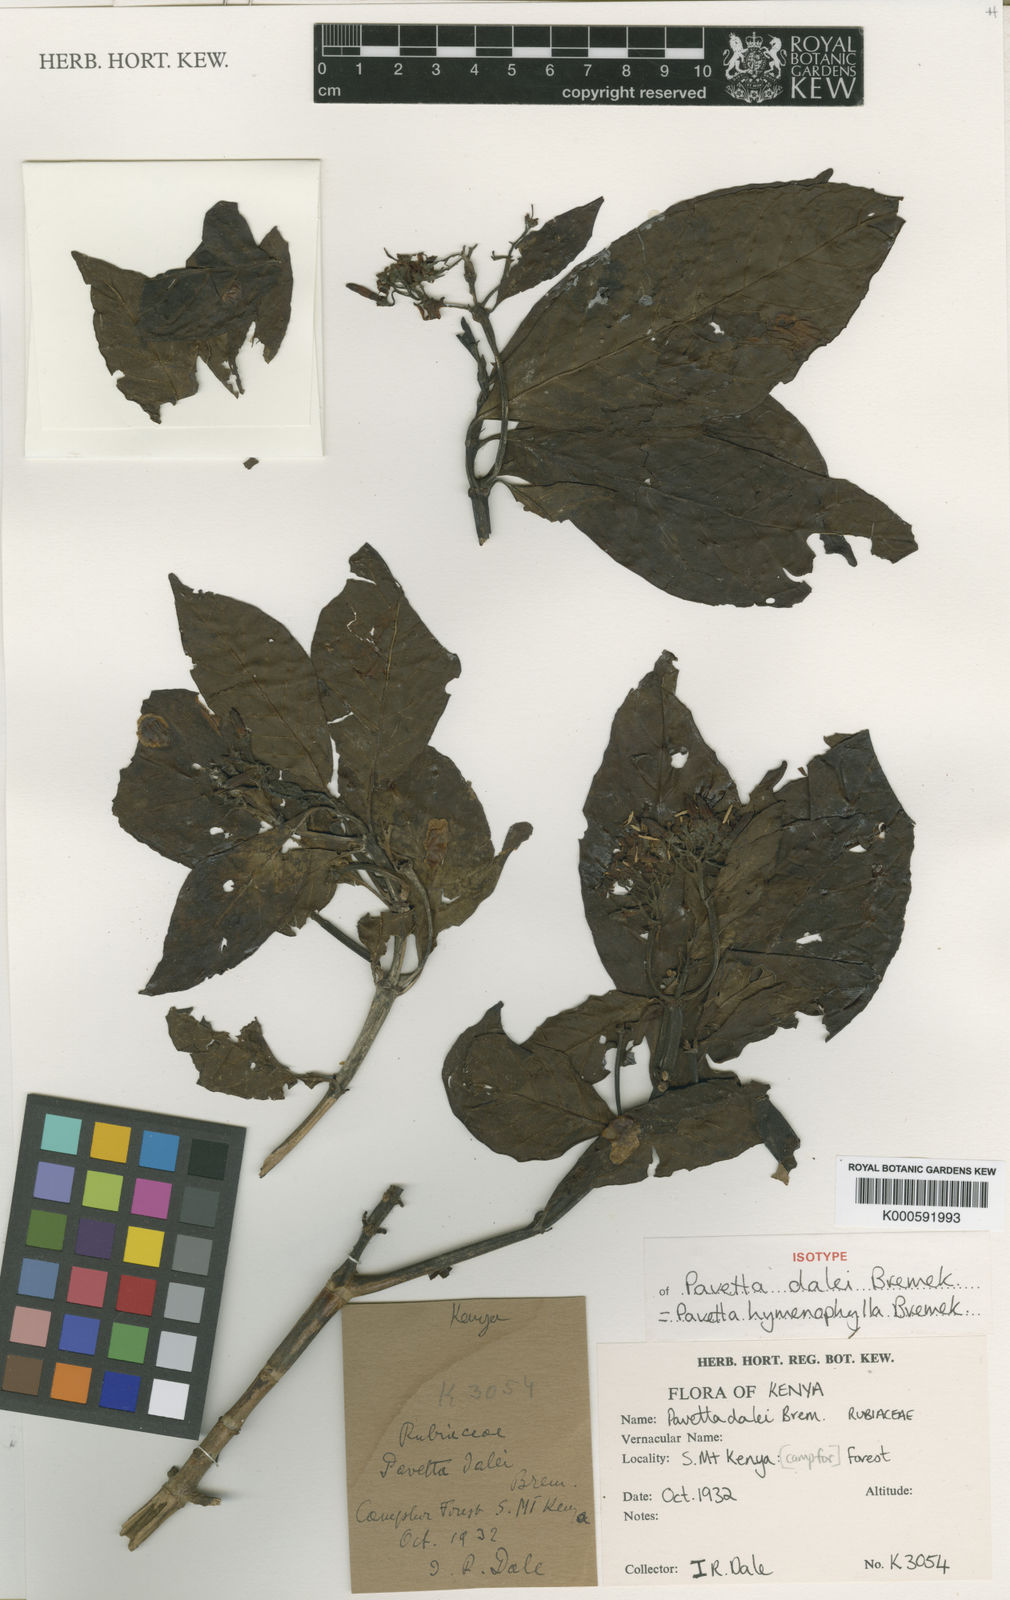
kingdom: Plantae
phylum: Tracheophyta
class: Magnoliopsida
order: Gentianales
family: Rubiaceae
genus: Pavetta
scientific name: Pavetta hymenophylla
